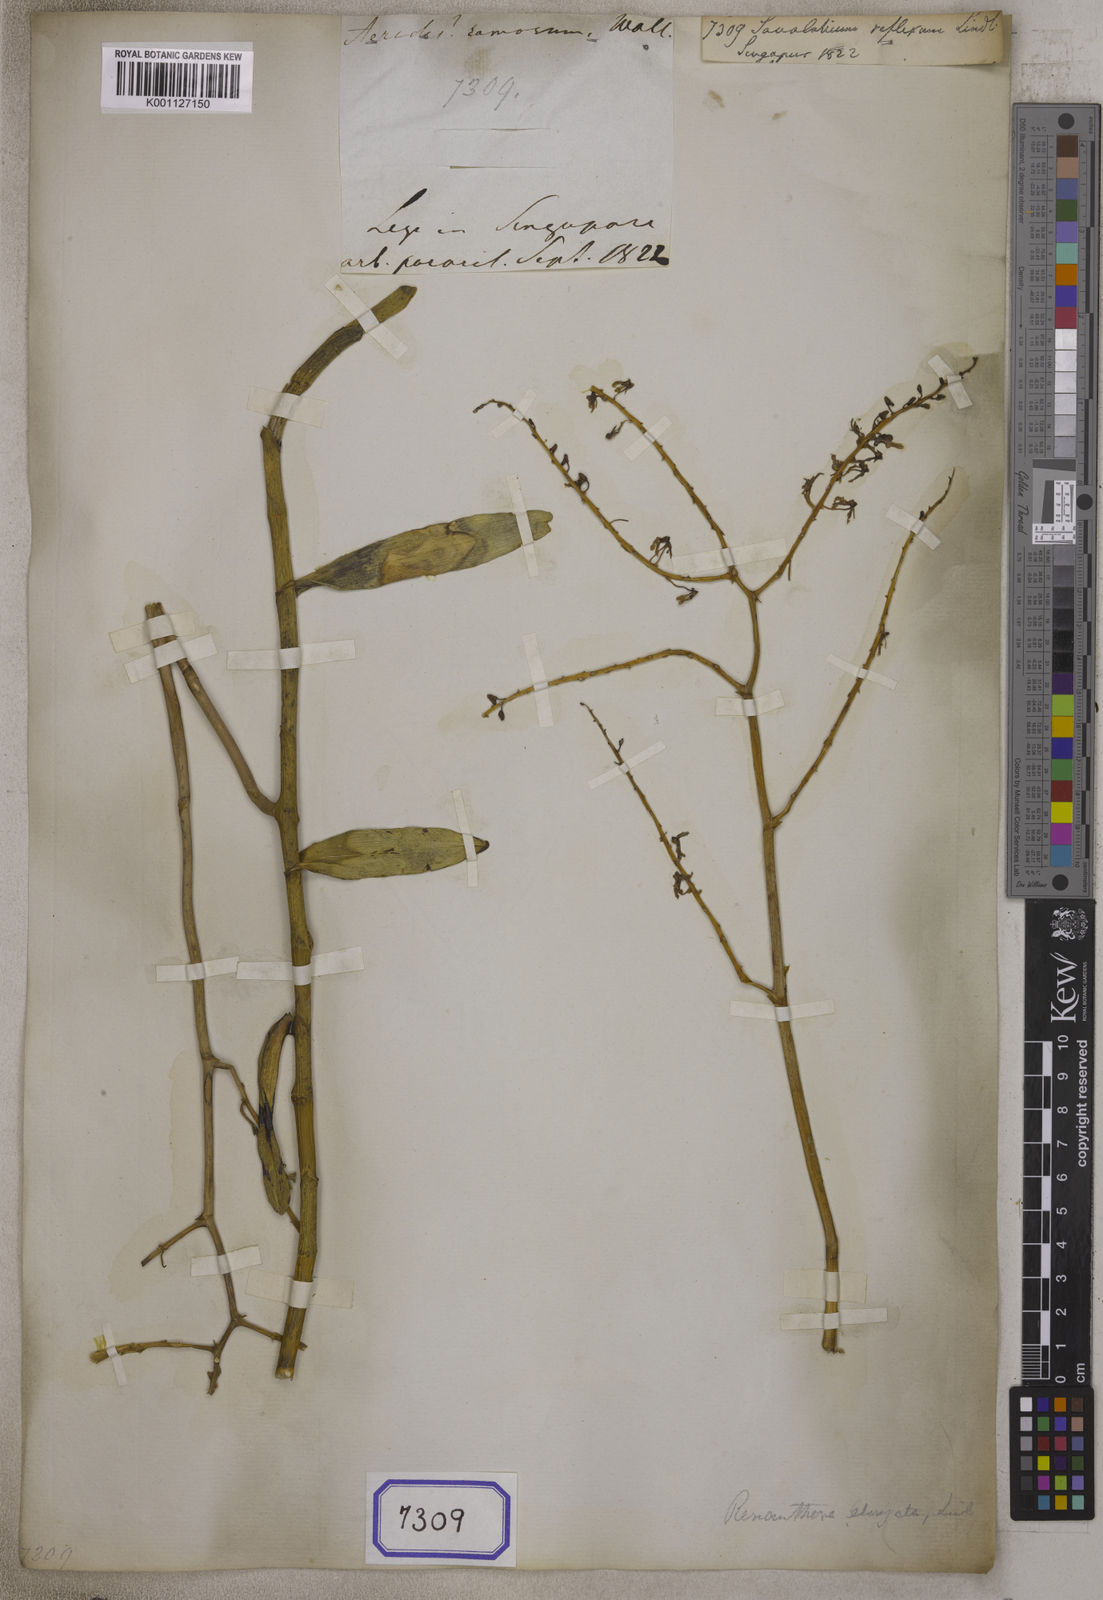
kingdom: Plantae
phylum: Tracheophyta
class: Liliopsida
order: Asparagales
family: Orchidaceae
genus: Renanthera
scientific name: Renanthera elongata
